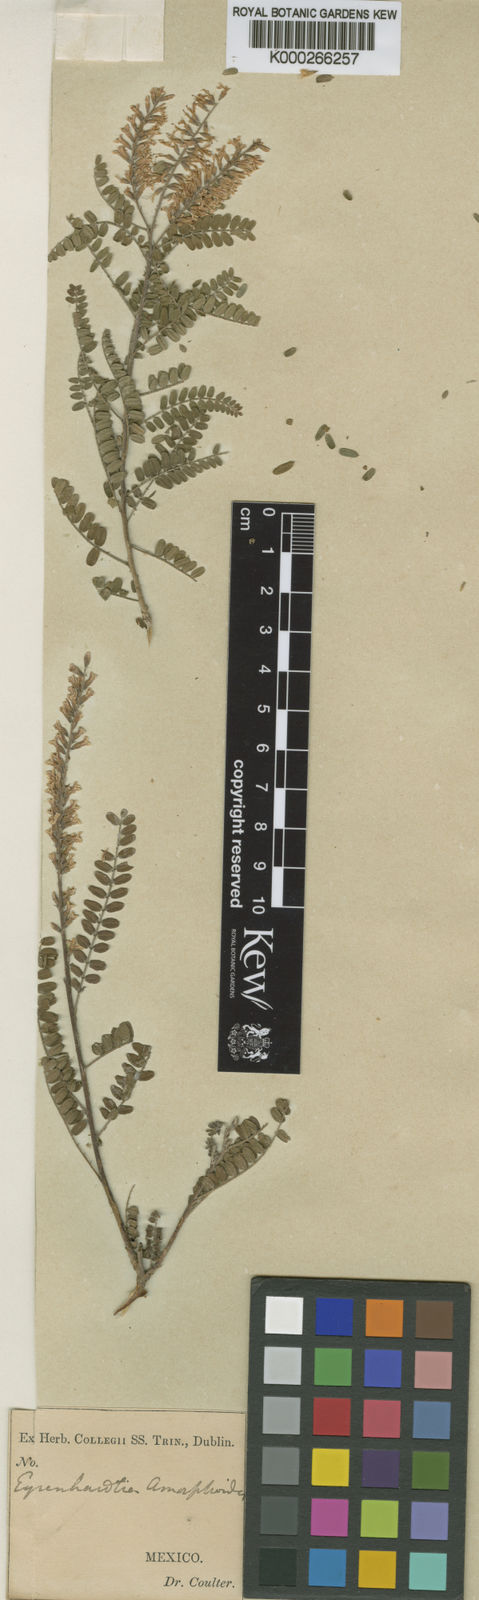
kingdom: Plantae
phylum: Tracheophyta
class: Magnoliopsida
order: Fabales
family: Fabaceae
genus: Eysenhardtia
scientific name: Eysenhardtia polystachya
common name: Kidneywood
